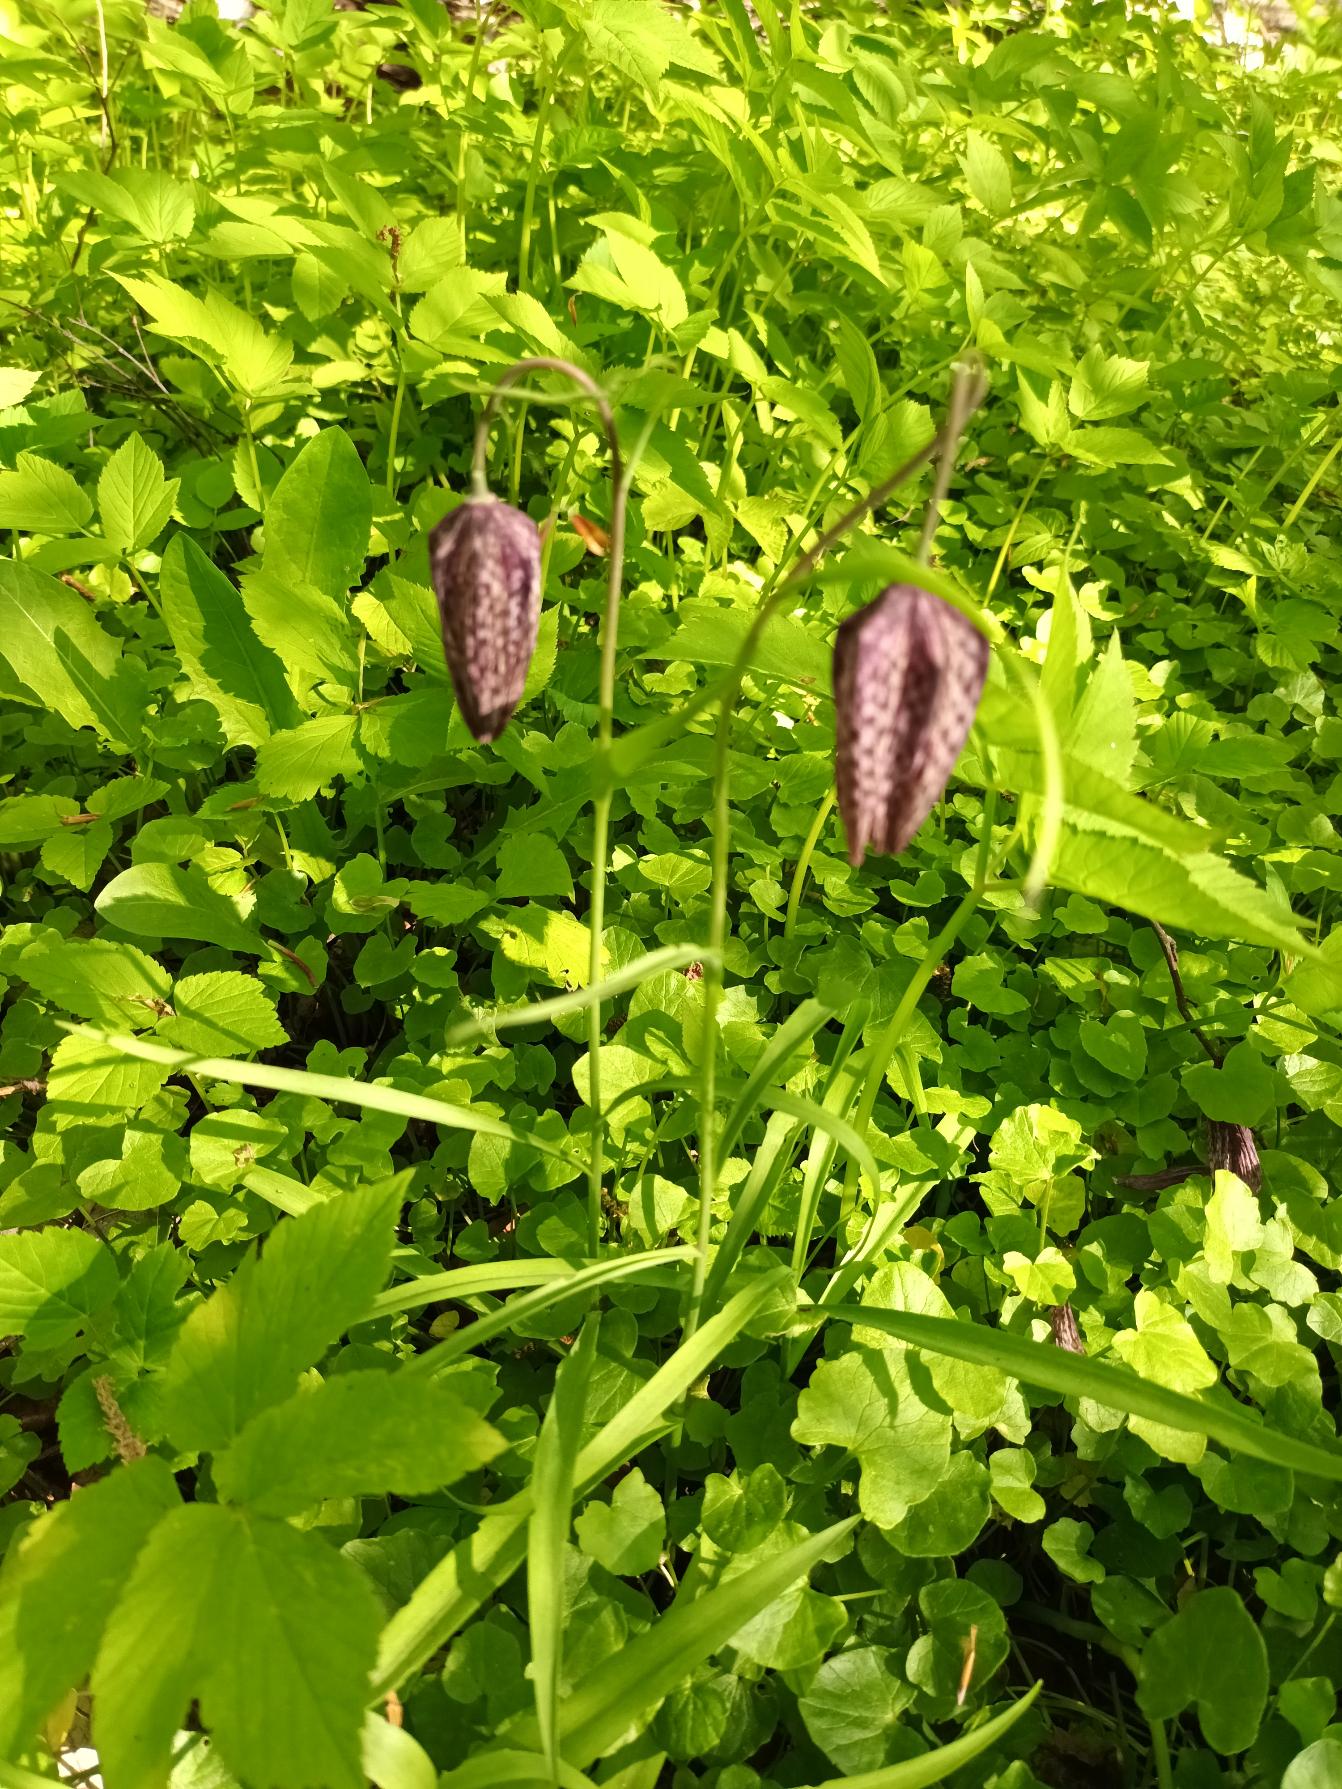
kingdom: Plantae
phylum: Tracheophyta
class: Liliopsida
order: Liliales
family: Liliaceae
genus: Fritillaria
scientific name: Fritillaria meleagris
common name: Vibeæg
